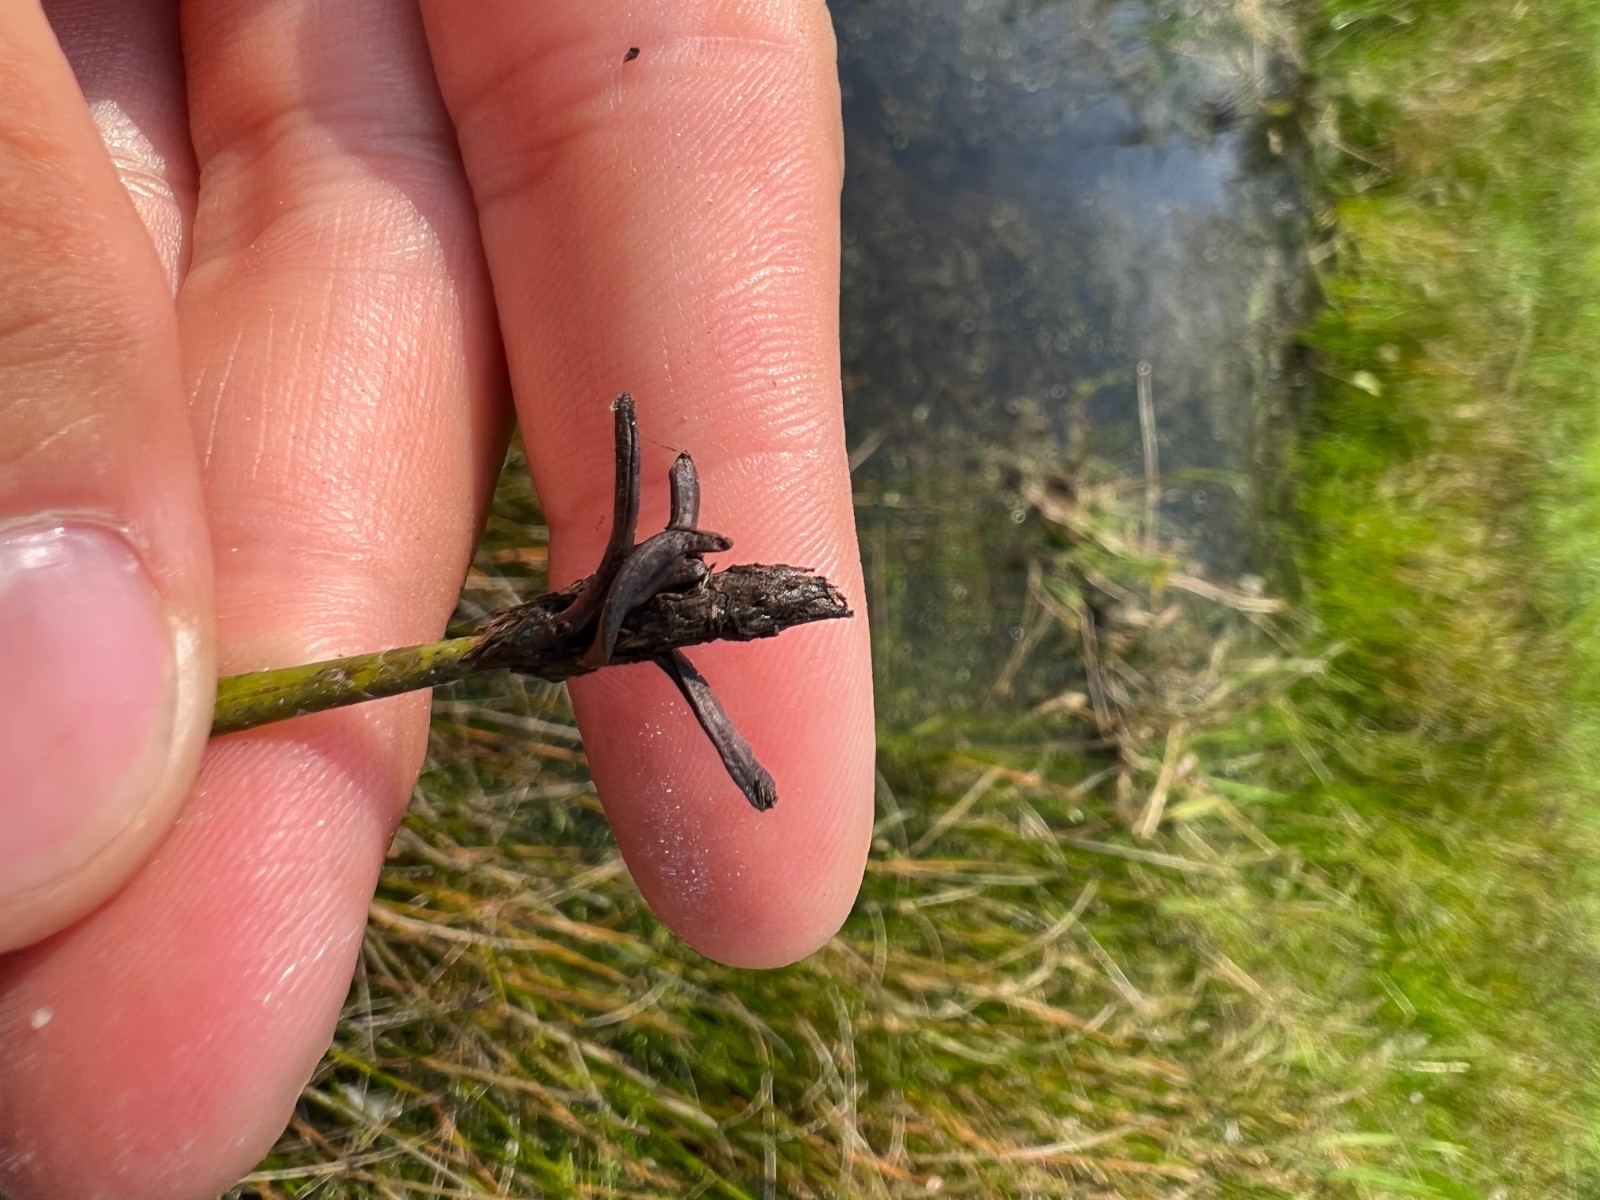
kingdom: Fungi
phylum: Ascomycota
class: Sordariomycetes
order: Hypocreales
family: Clavicipitaceae
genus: Claviceps
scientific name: Claviceps nigricans
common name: sumpstrå-meldrøjer
